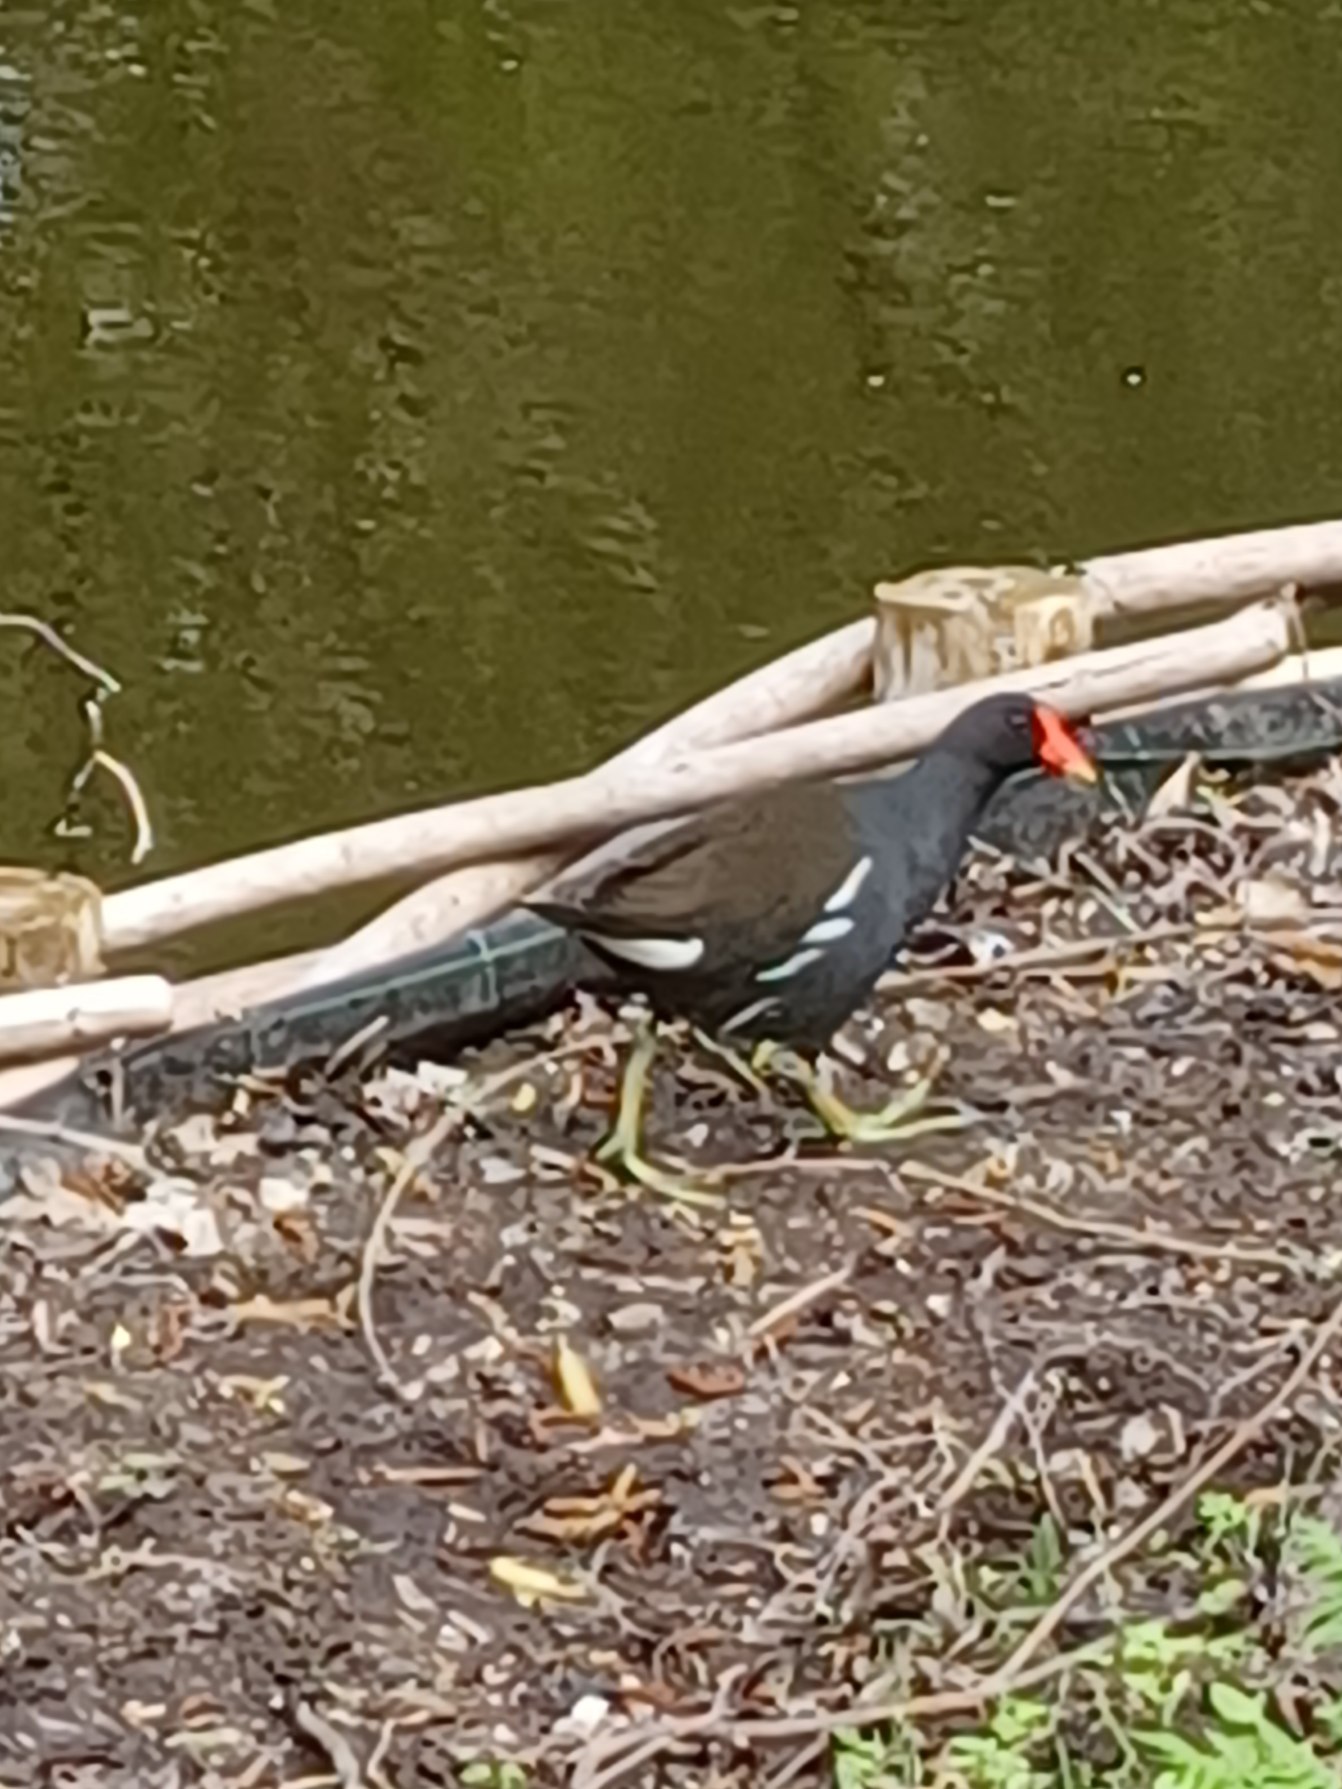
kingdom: Animalia
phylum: Chordata
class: Aves
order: Gruiformes
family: Rallidae
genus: Gallinula
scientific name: Gallinula chloropus
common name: Grønbenet rørhøne
